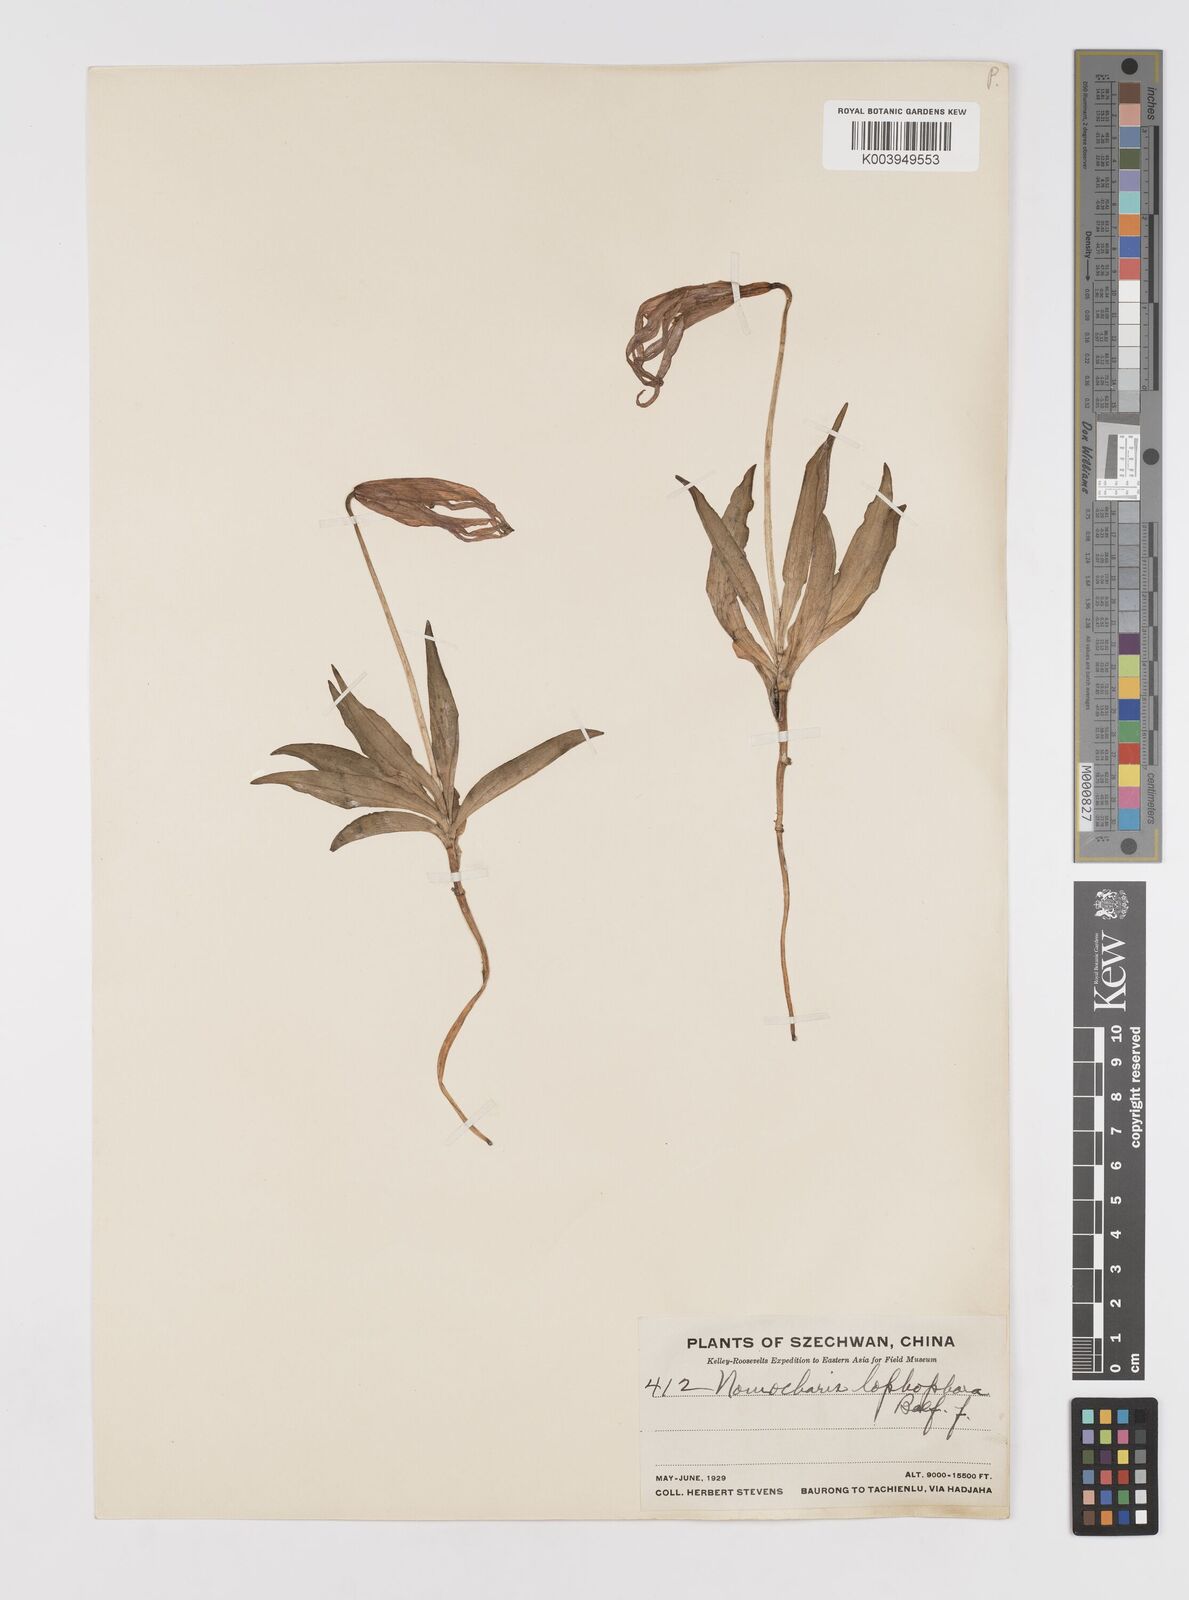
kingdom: Plantae
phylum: Tracheophyta
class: Liliopsida
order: Liliales
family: Liliaceae
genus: Lilium
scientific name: Lilium lophophorum
